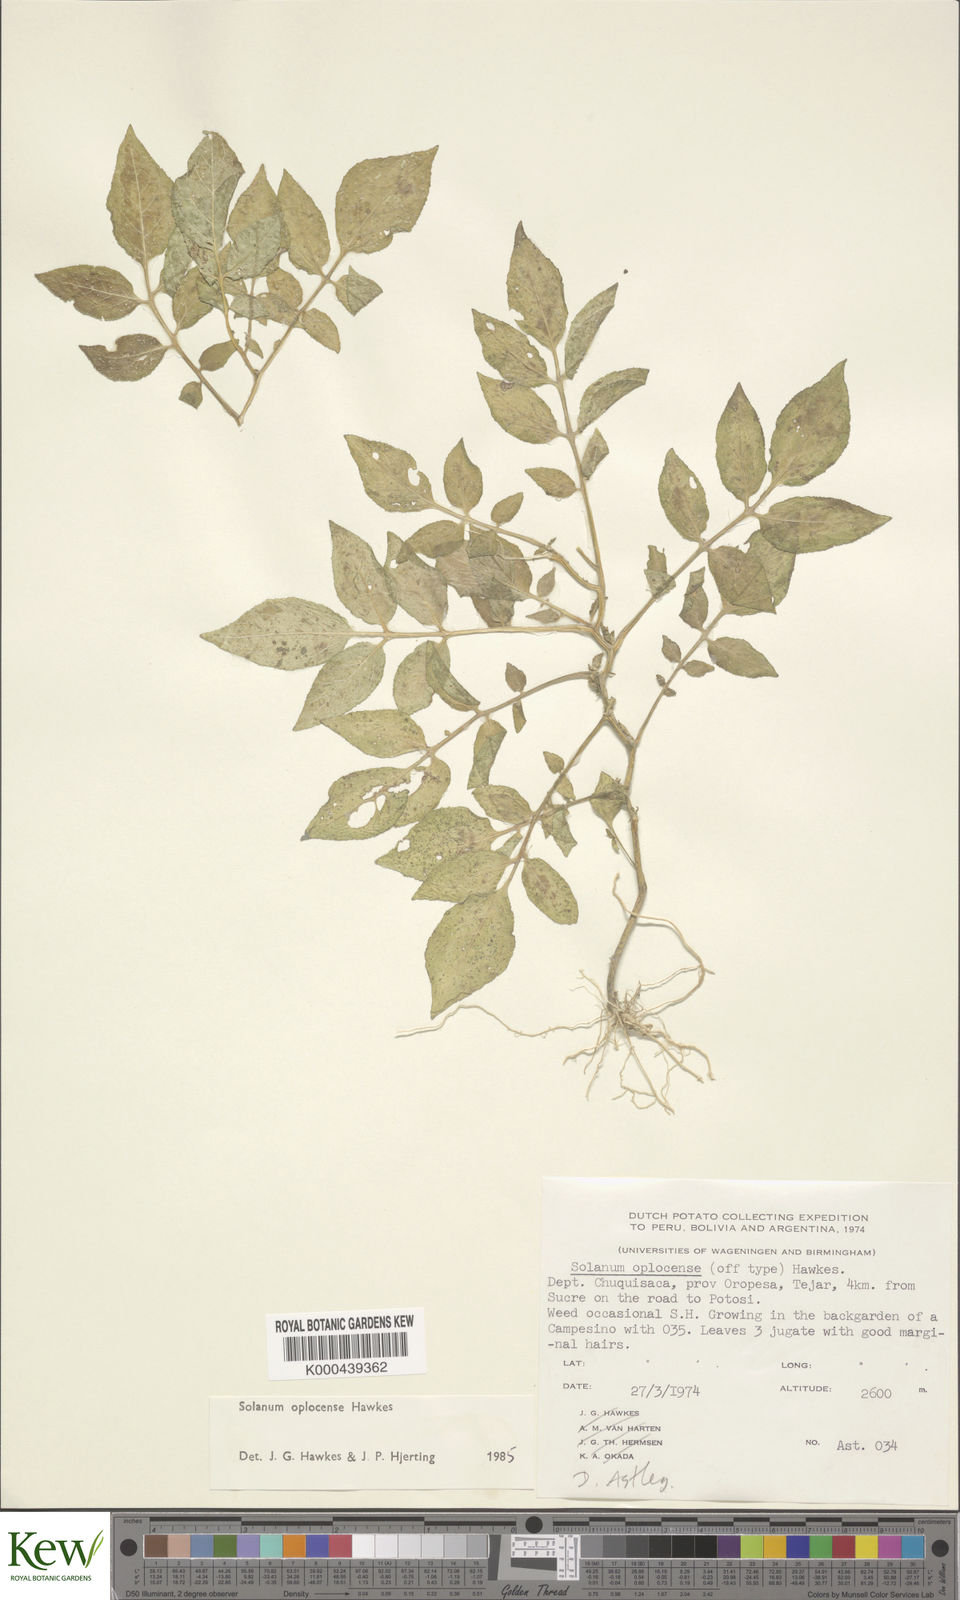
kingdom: Plantae
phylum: Tracheophyta
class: Magnoliopsida
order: Solanales
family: Solanaceae
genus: Solanum
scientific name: Solanum brevicaule
